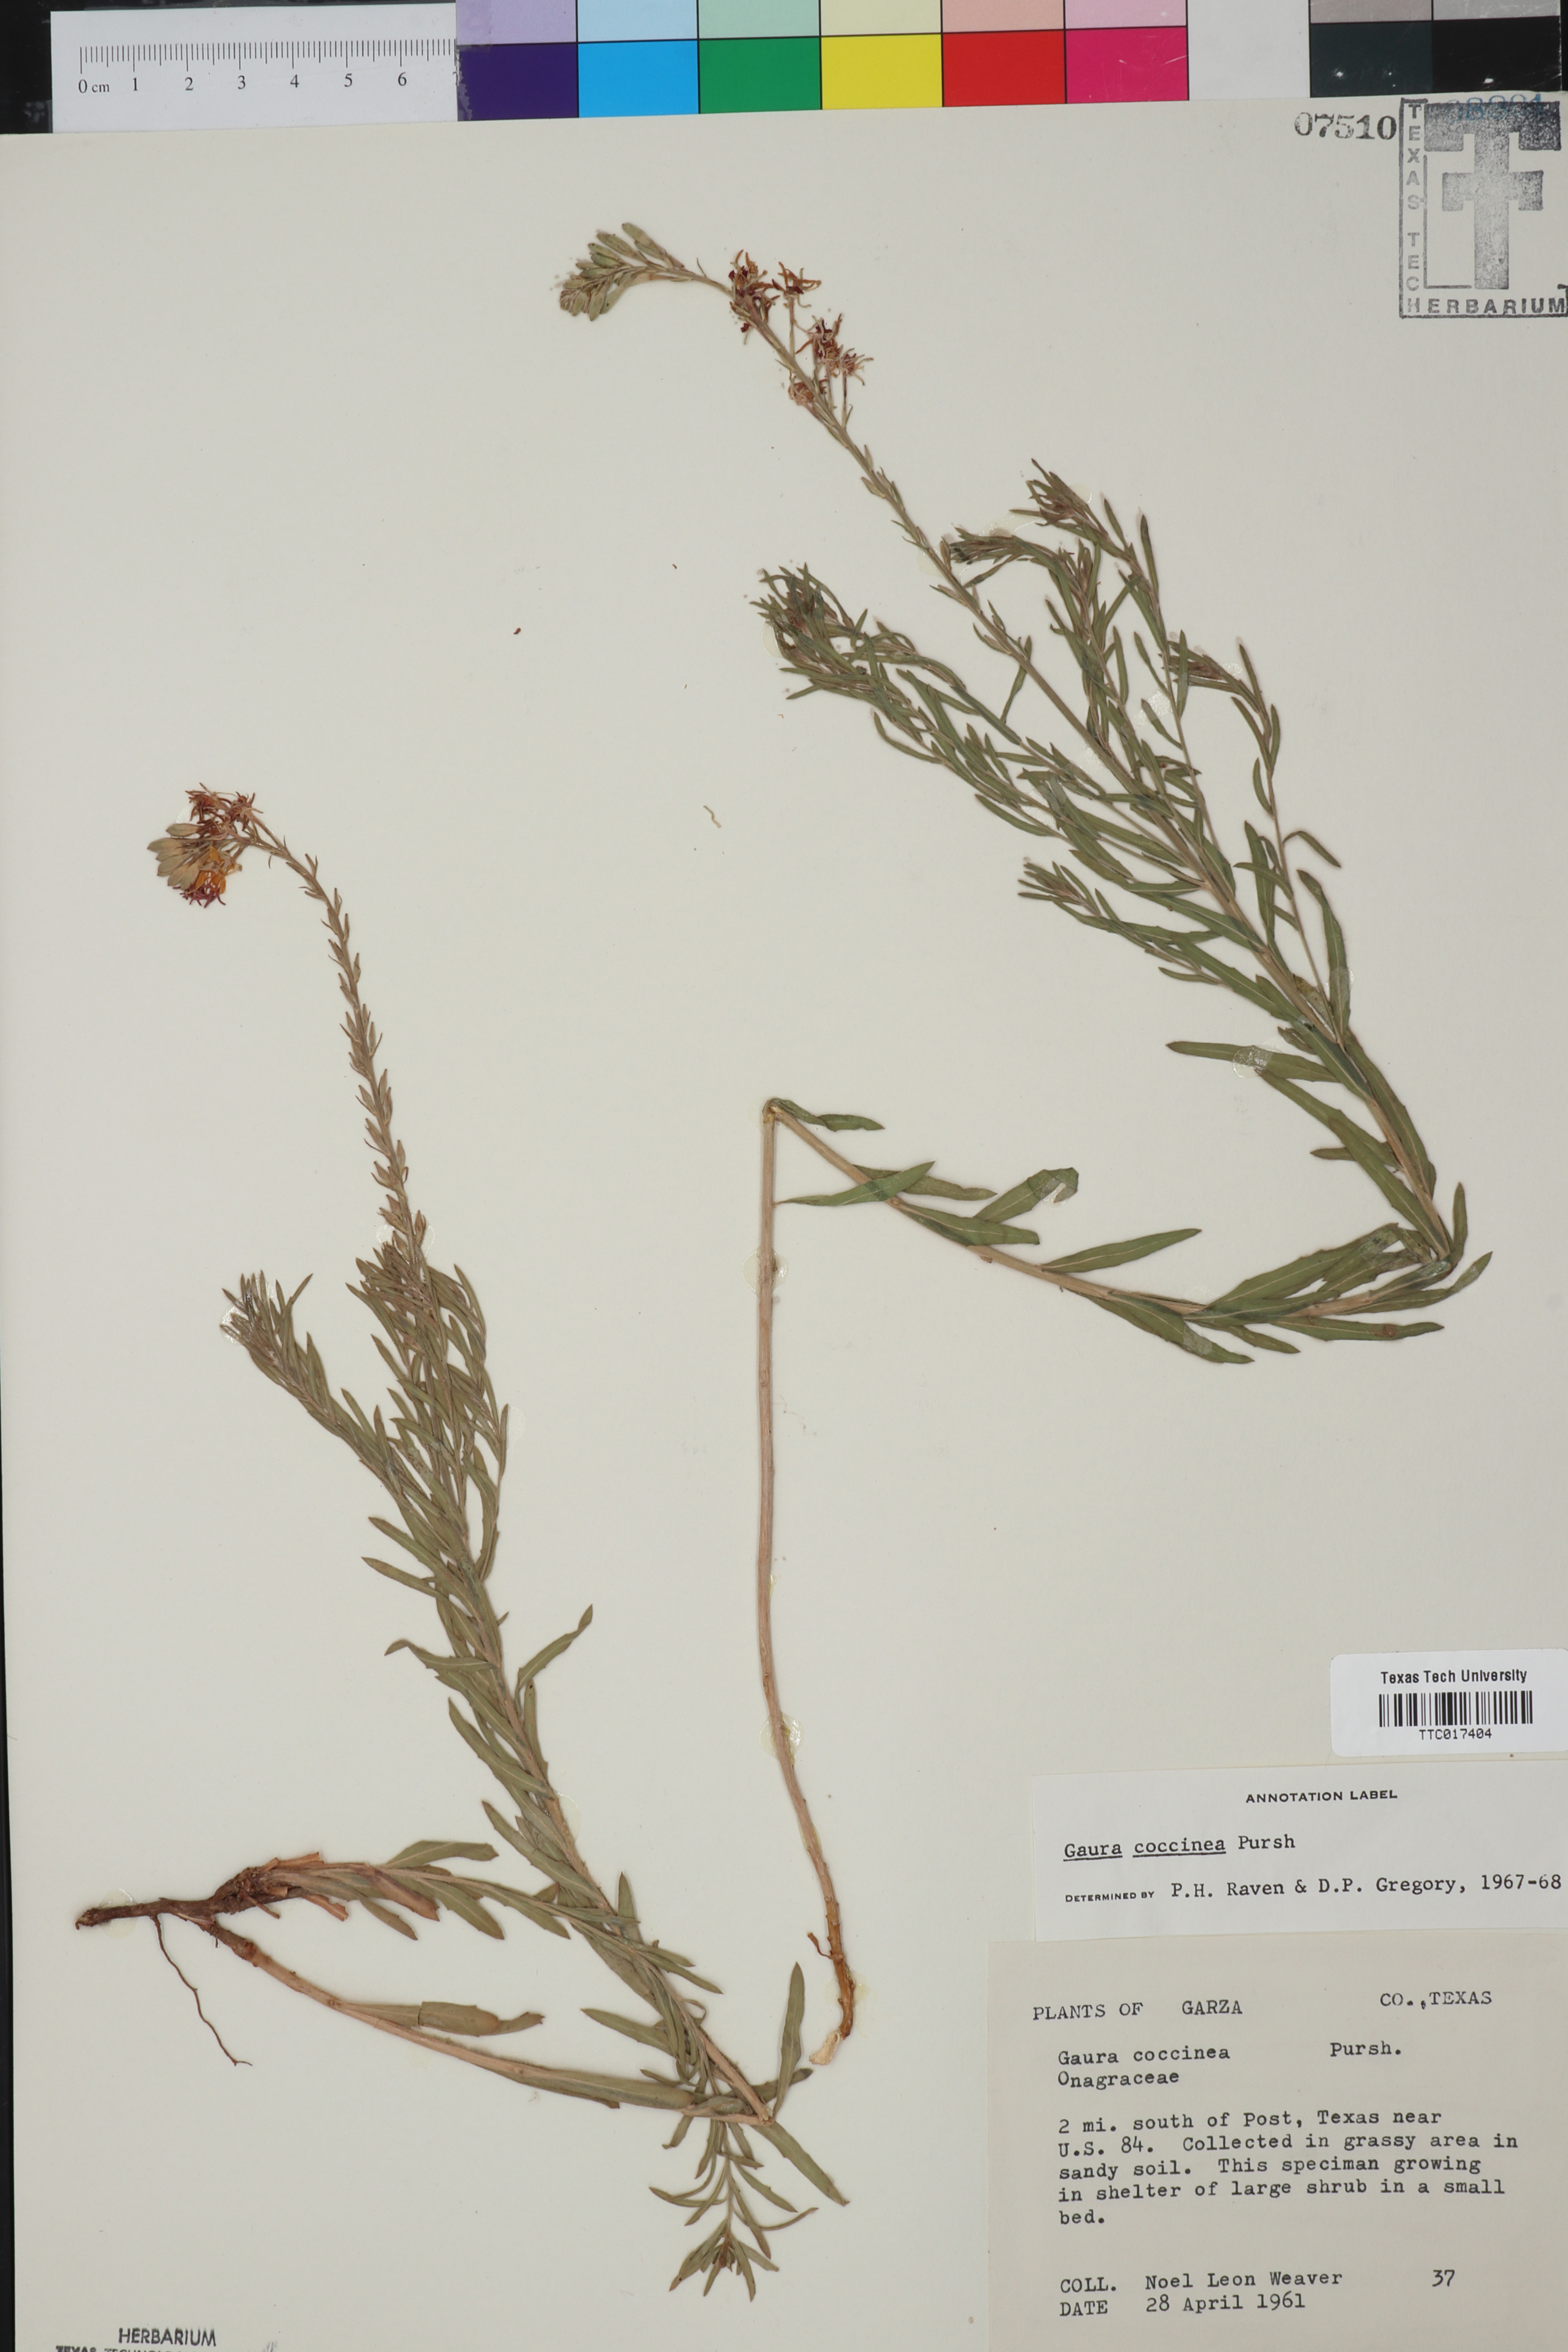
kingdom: Plantae
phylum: Tracheophyta
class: Magnoliopsida
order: Myrtales
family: Onagraceae
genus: Oenothera
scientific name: Oenothera suffrutescens
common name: Scarlet beeblossom
